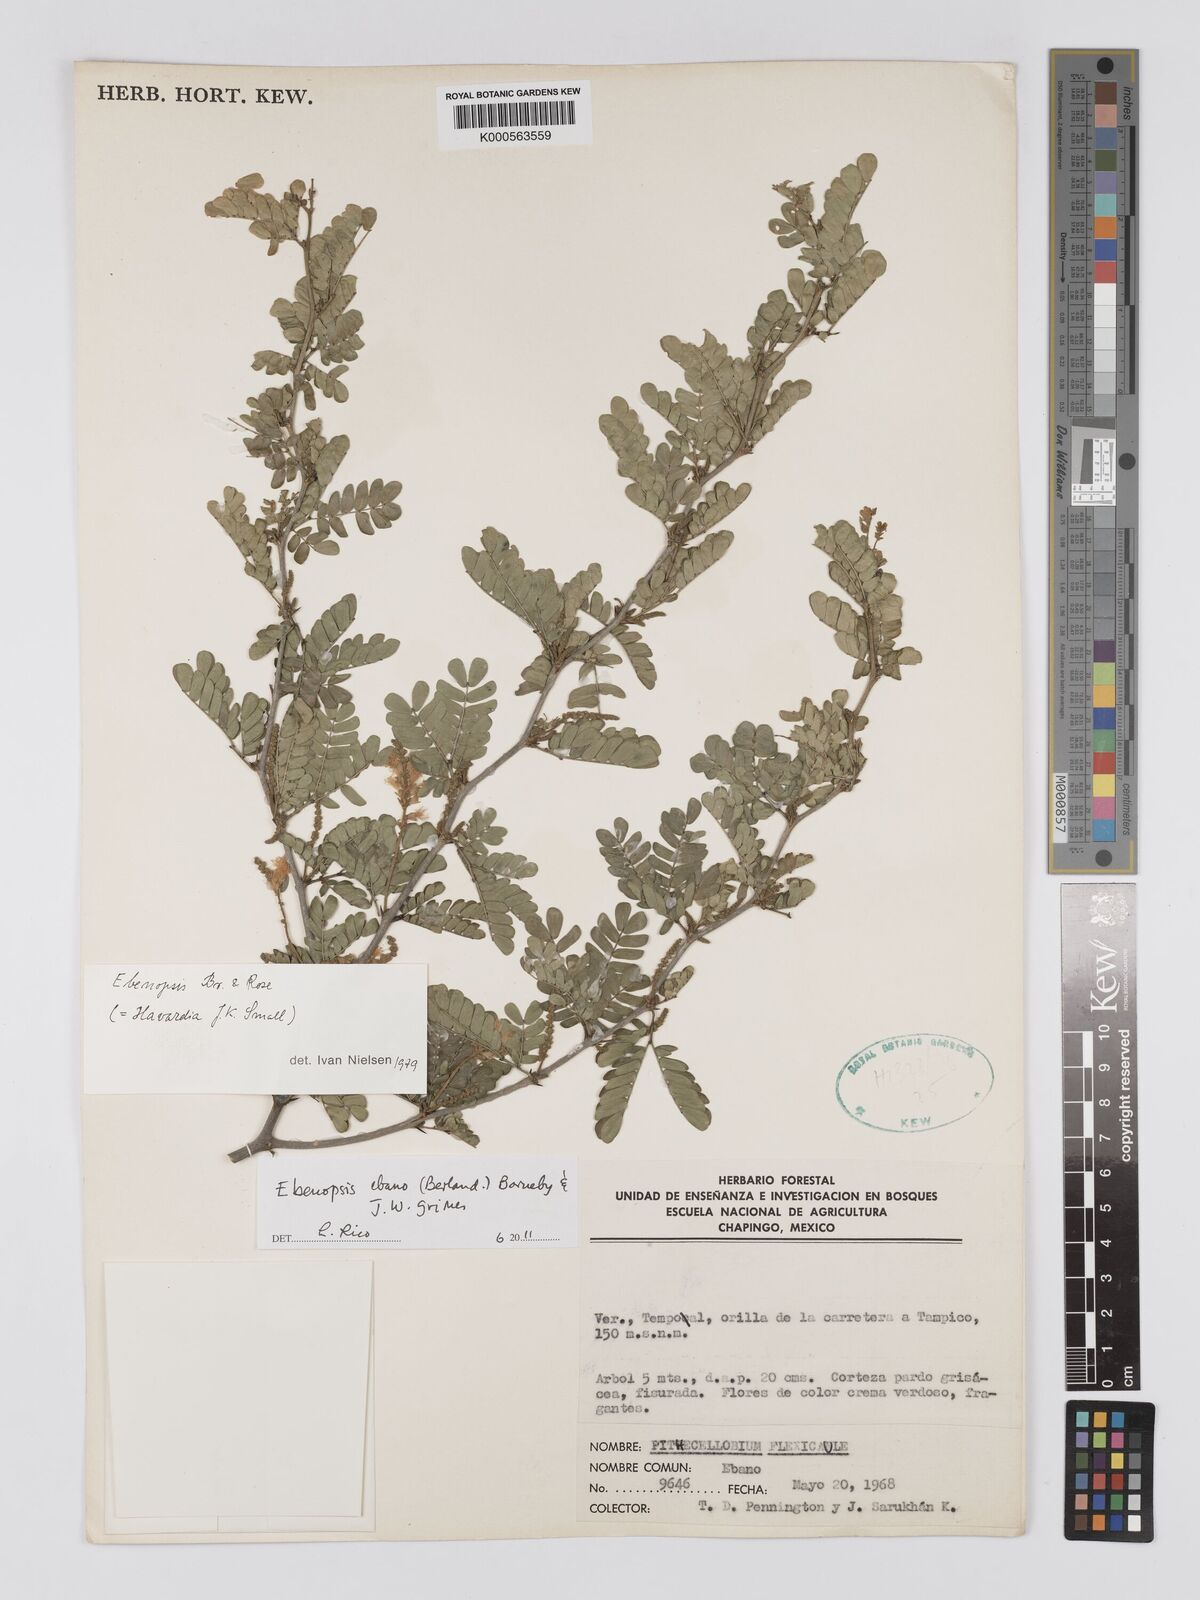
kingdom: Plantae
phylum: Tracheophyta
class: Magnoliopsida
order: Fabales
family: Fabaceae
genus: Ebenopsis
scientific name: Ebenopsis ebano
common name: Ebony blackbead
